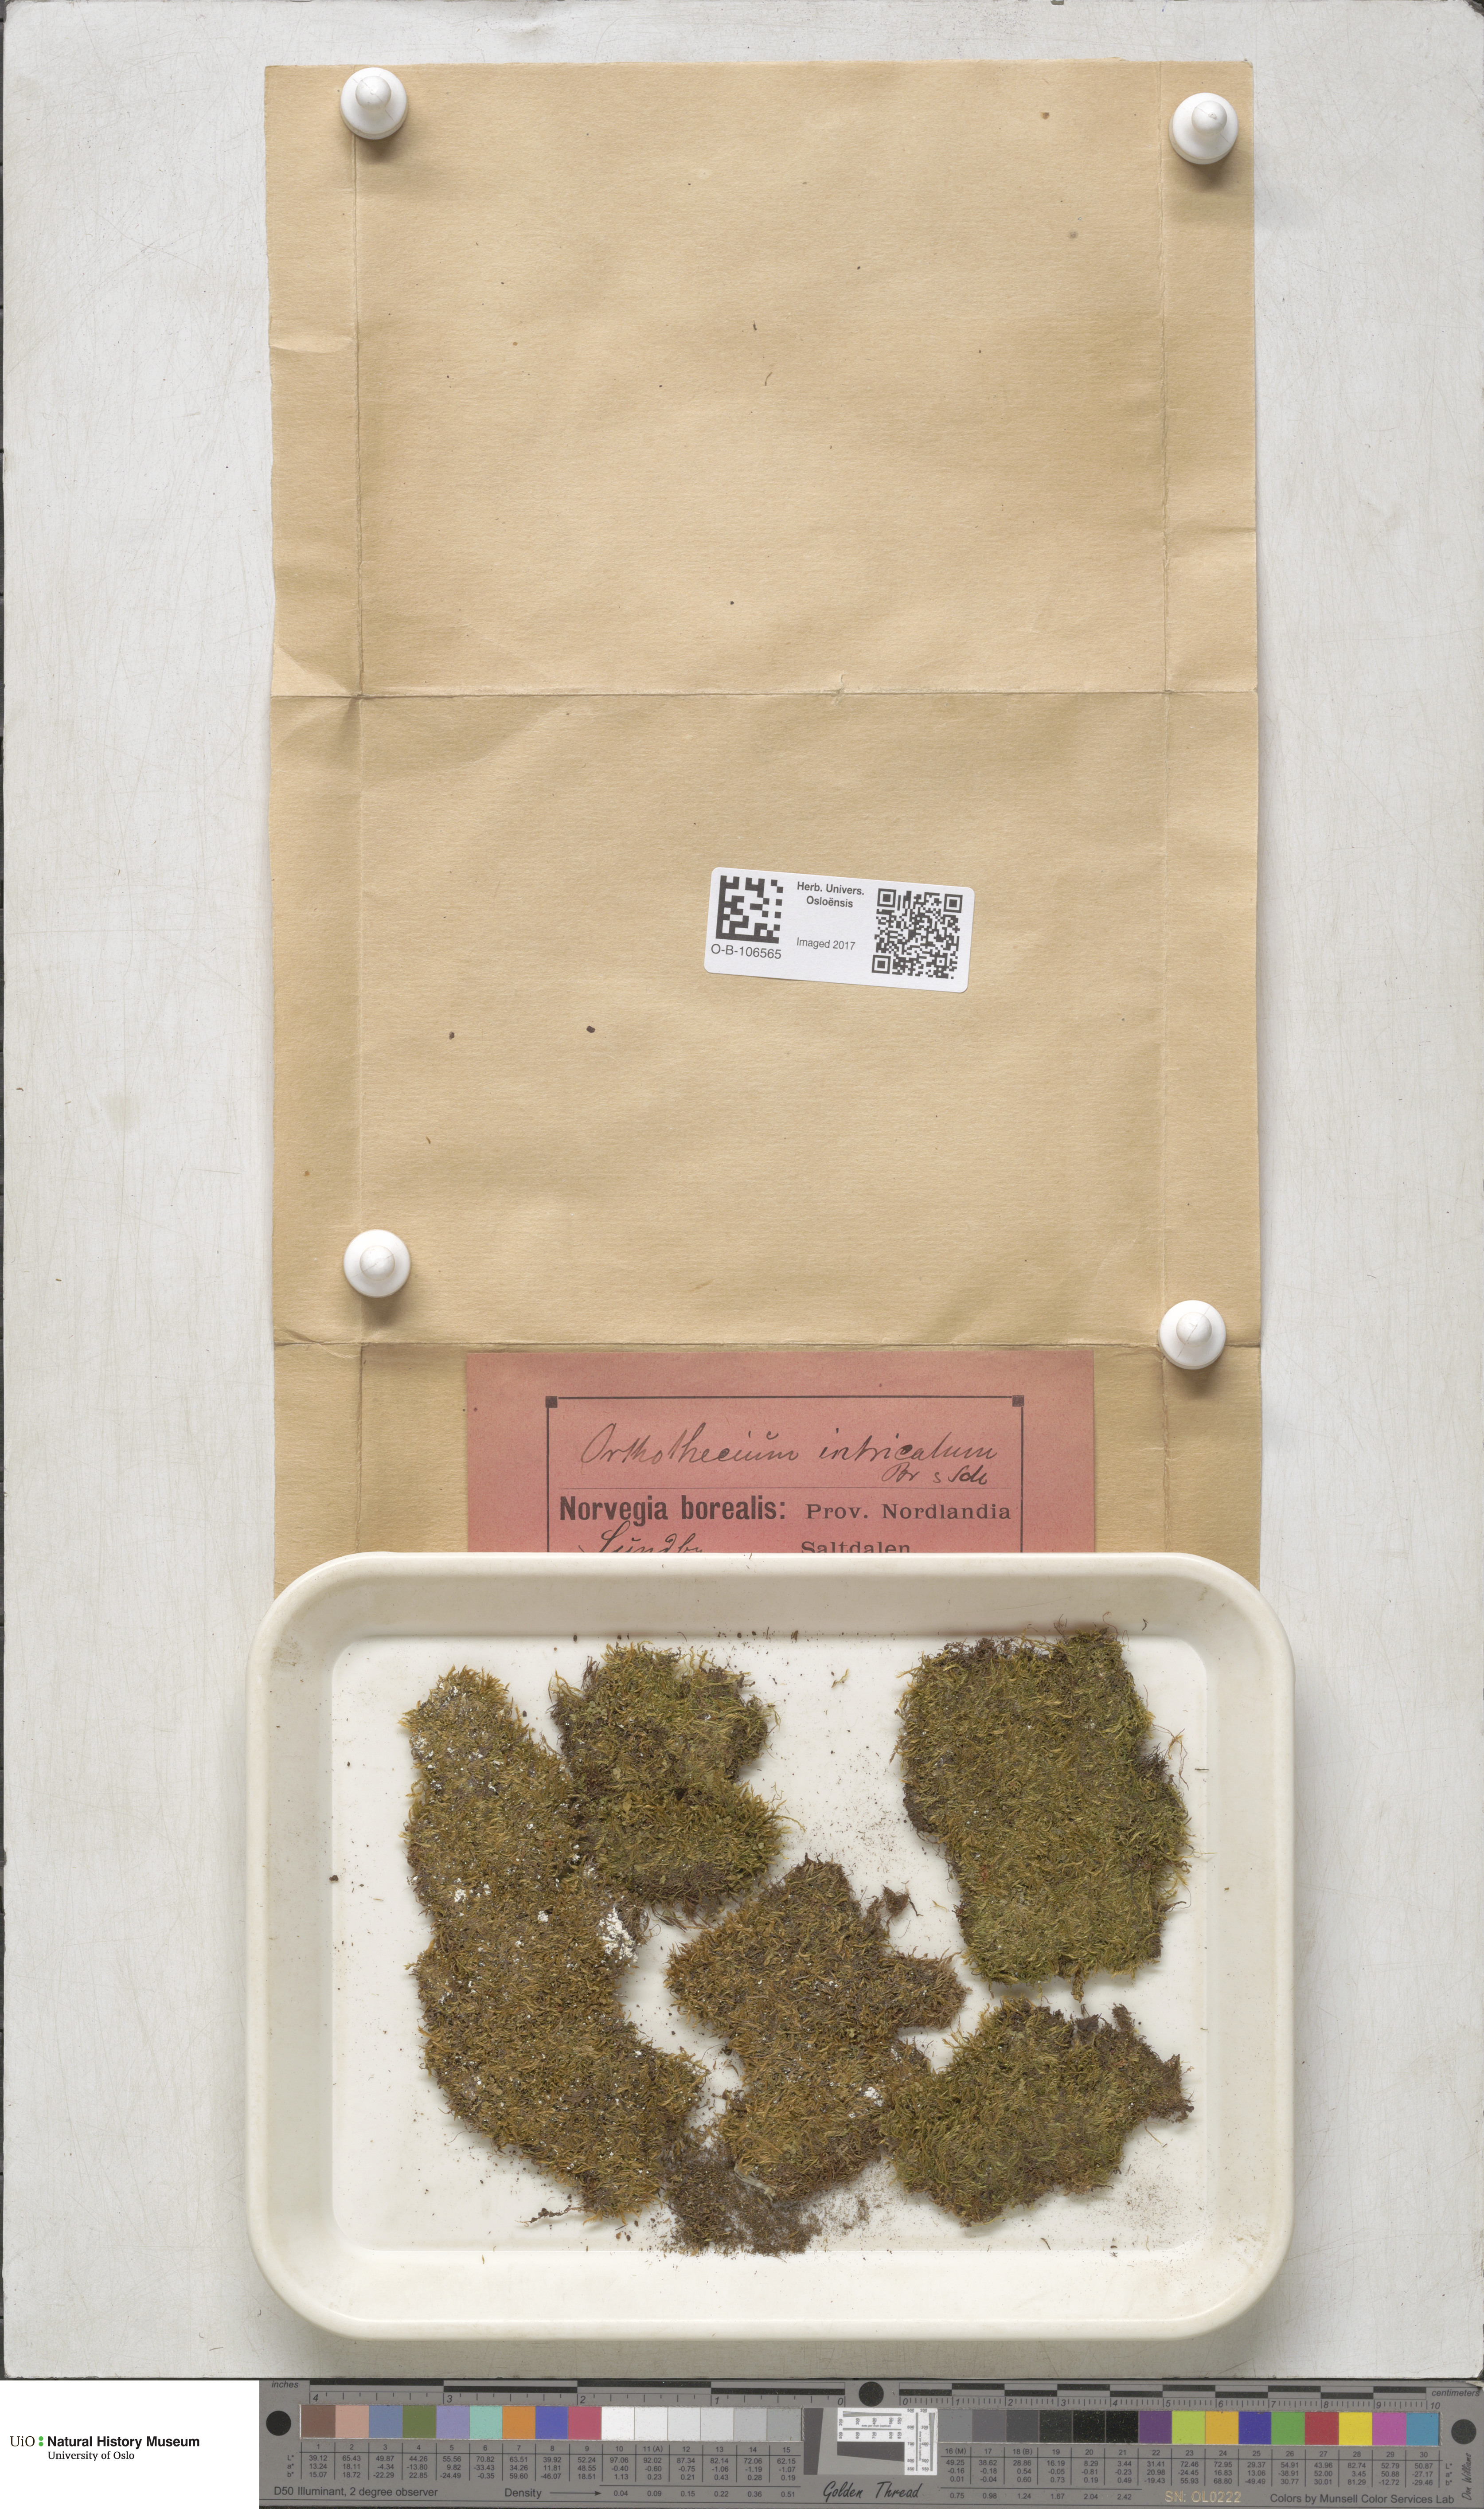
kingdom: Plantae
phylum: Bryophyta
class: Bryopsida
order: Hypnales
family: Plagiotheciaceae
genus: Orthothecium
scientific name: Orthothecium intricatum
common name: Fine-leaved erect-capsule moss
